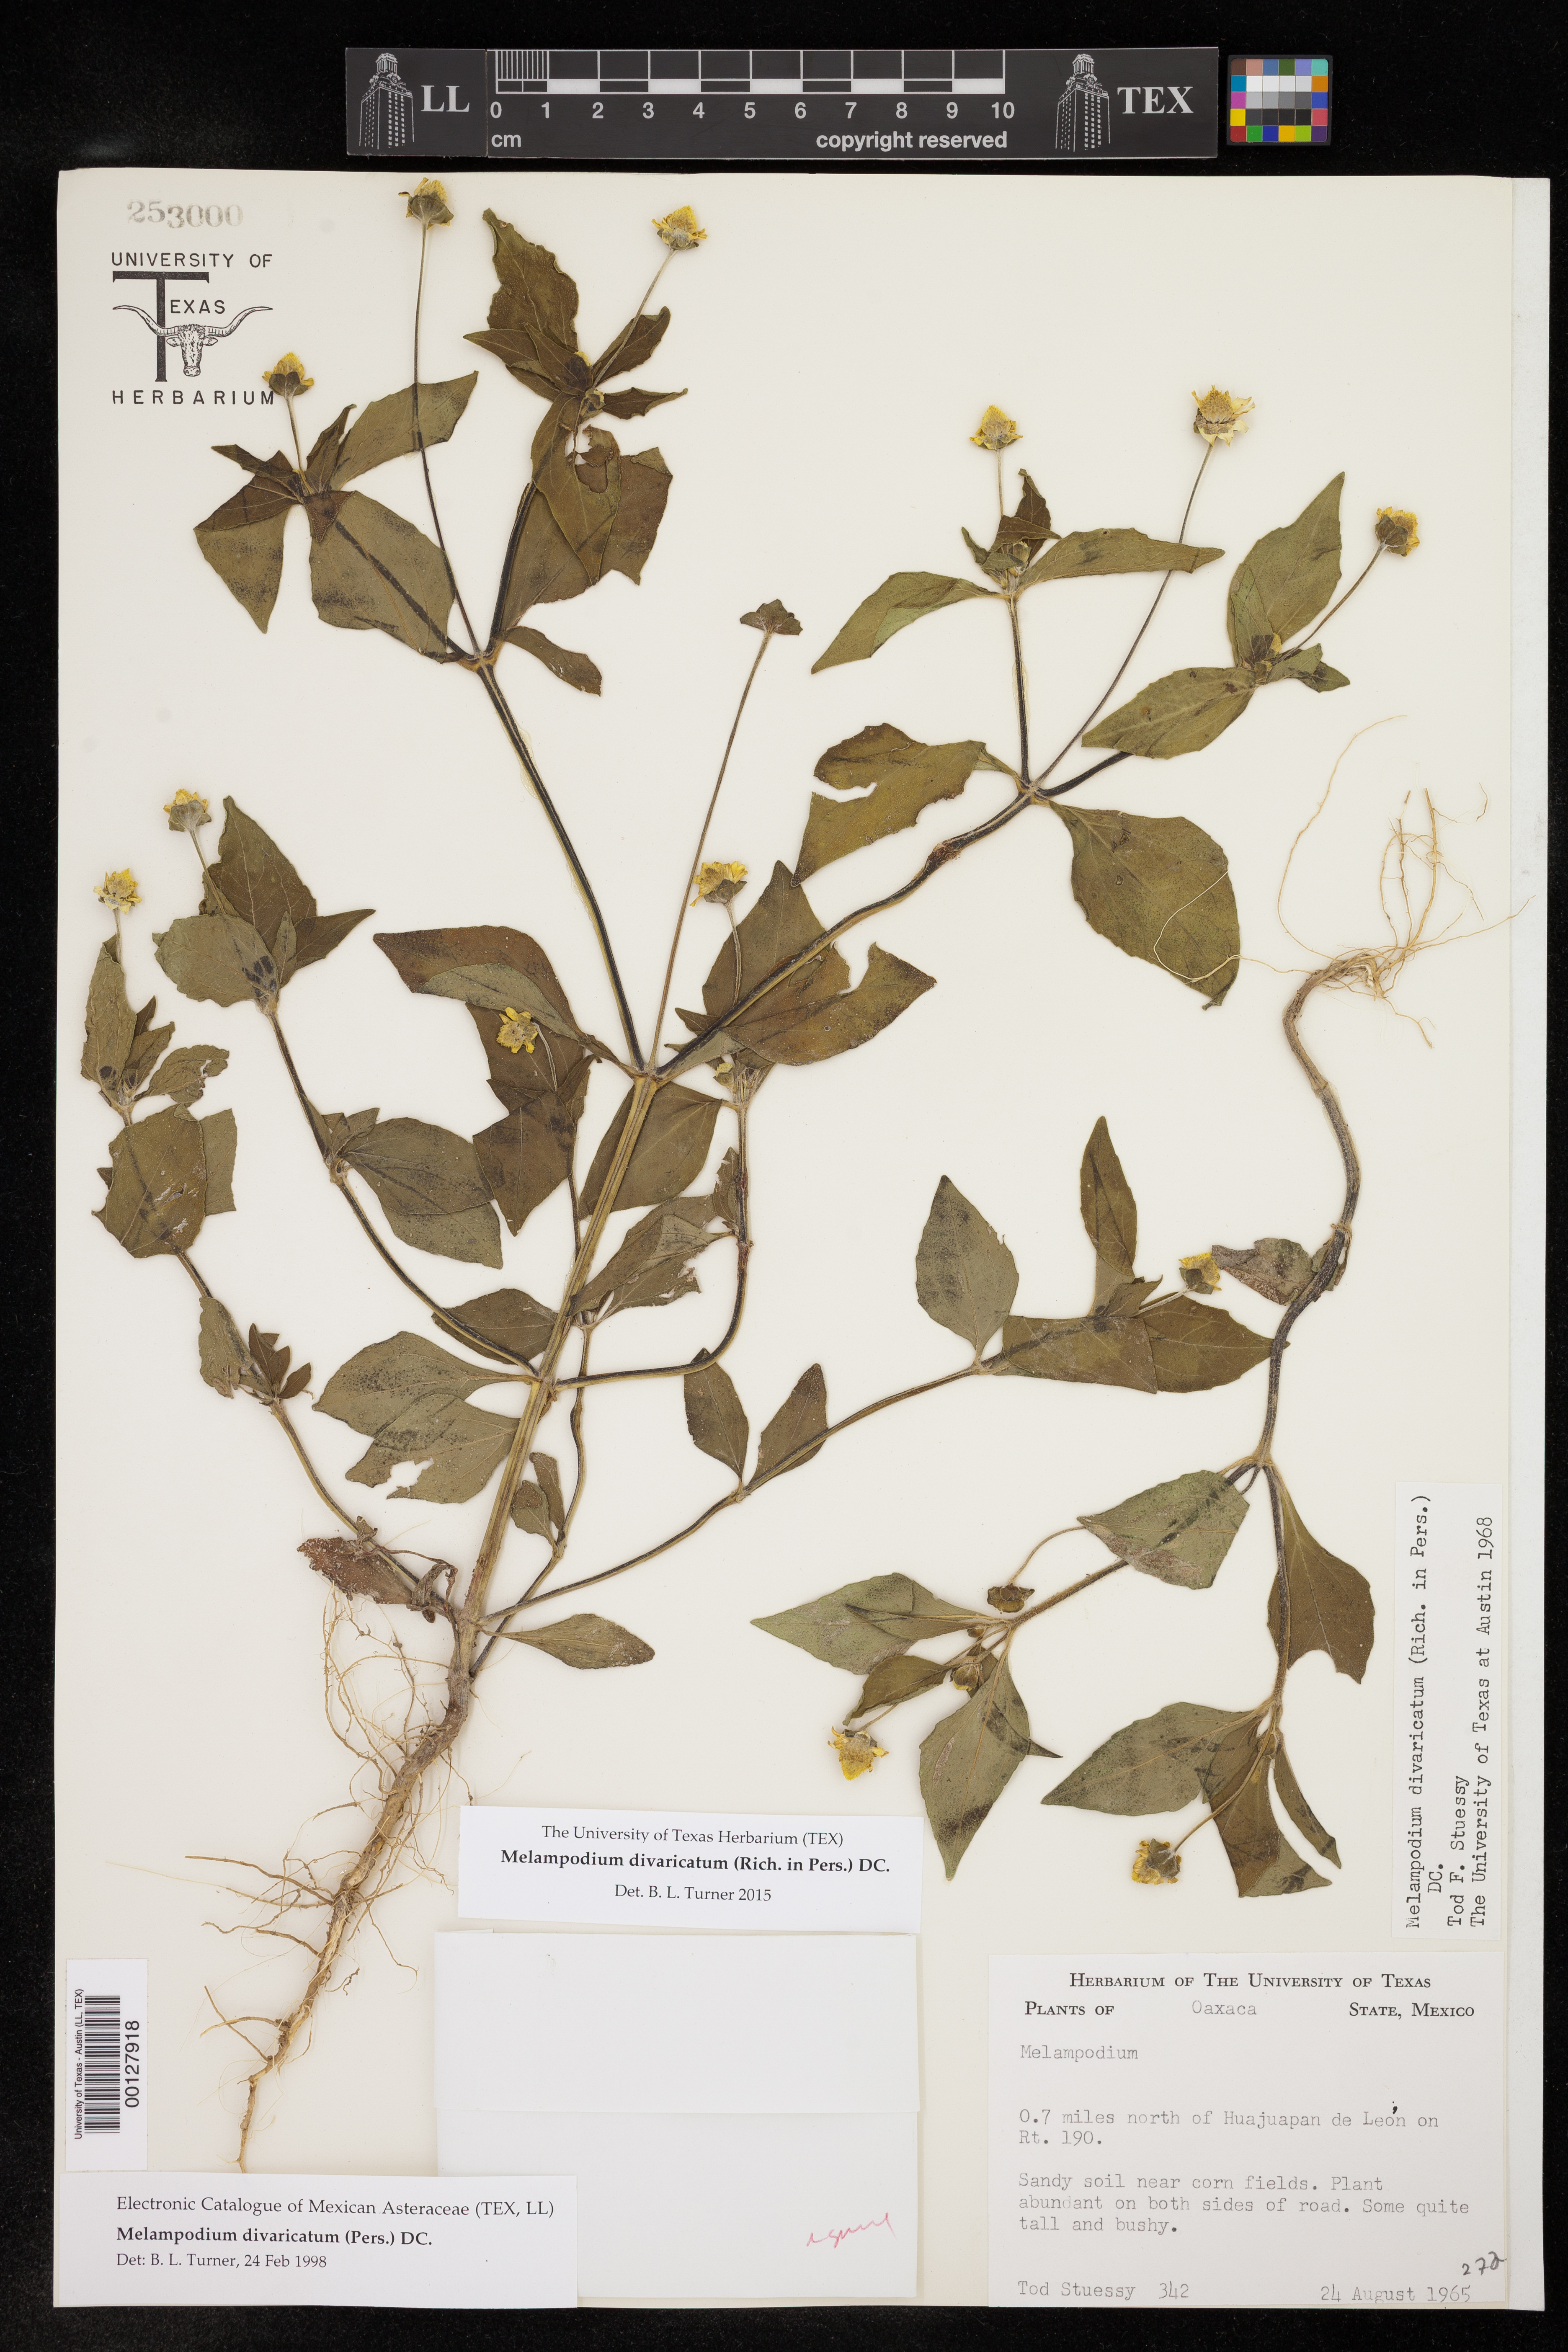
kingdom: Plantae
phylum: Tracheophyta
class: Magnoliopsida
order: Asterales
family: Asteraceae
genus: Melampodium
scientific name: Melampodium divaricatum
